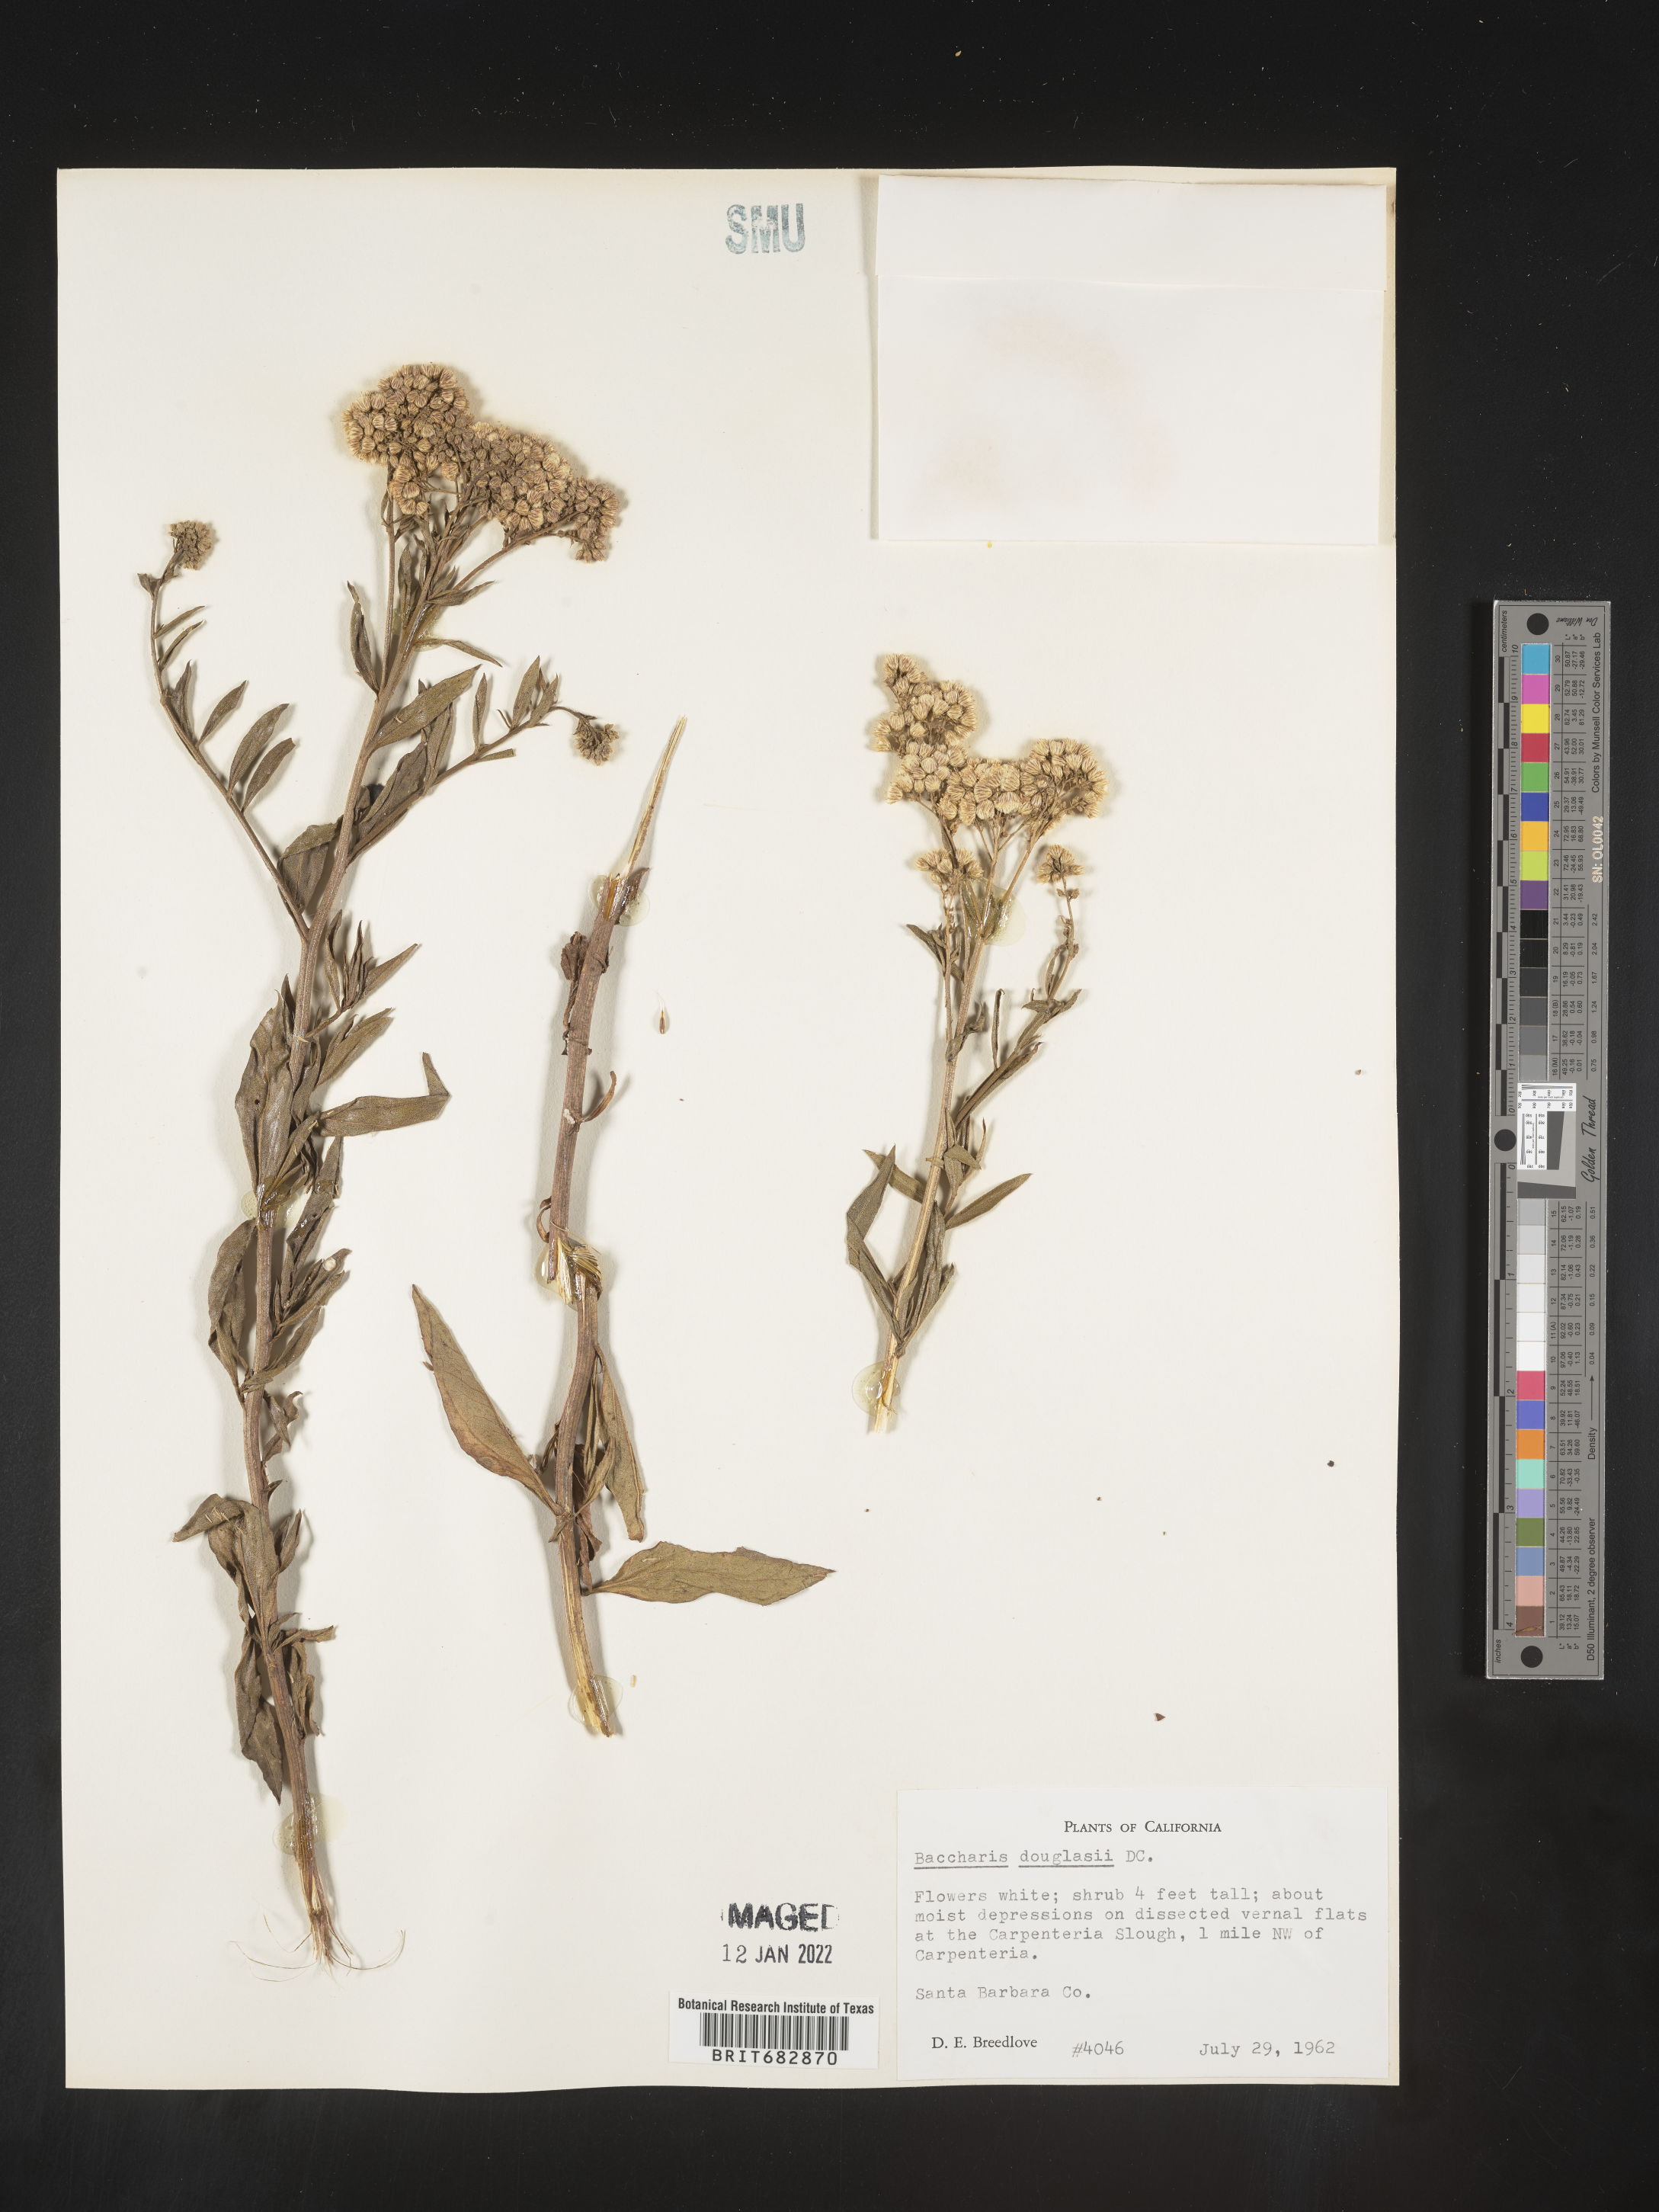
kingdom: Plantae
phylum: Tracheophyta
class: Magnoliopsida
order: Asterales
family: Asteraceae
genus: Baccharis
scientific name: Baccharis douglasii
